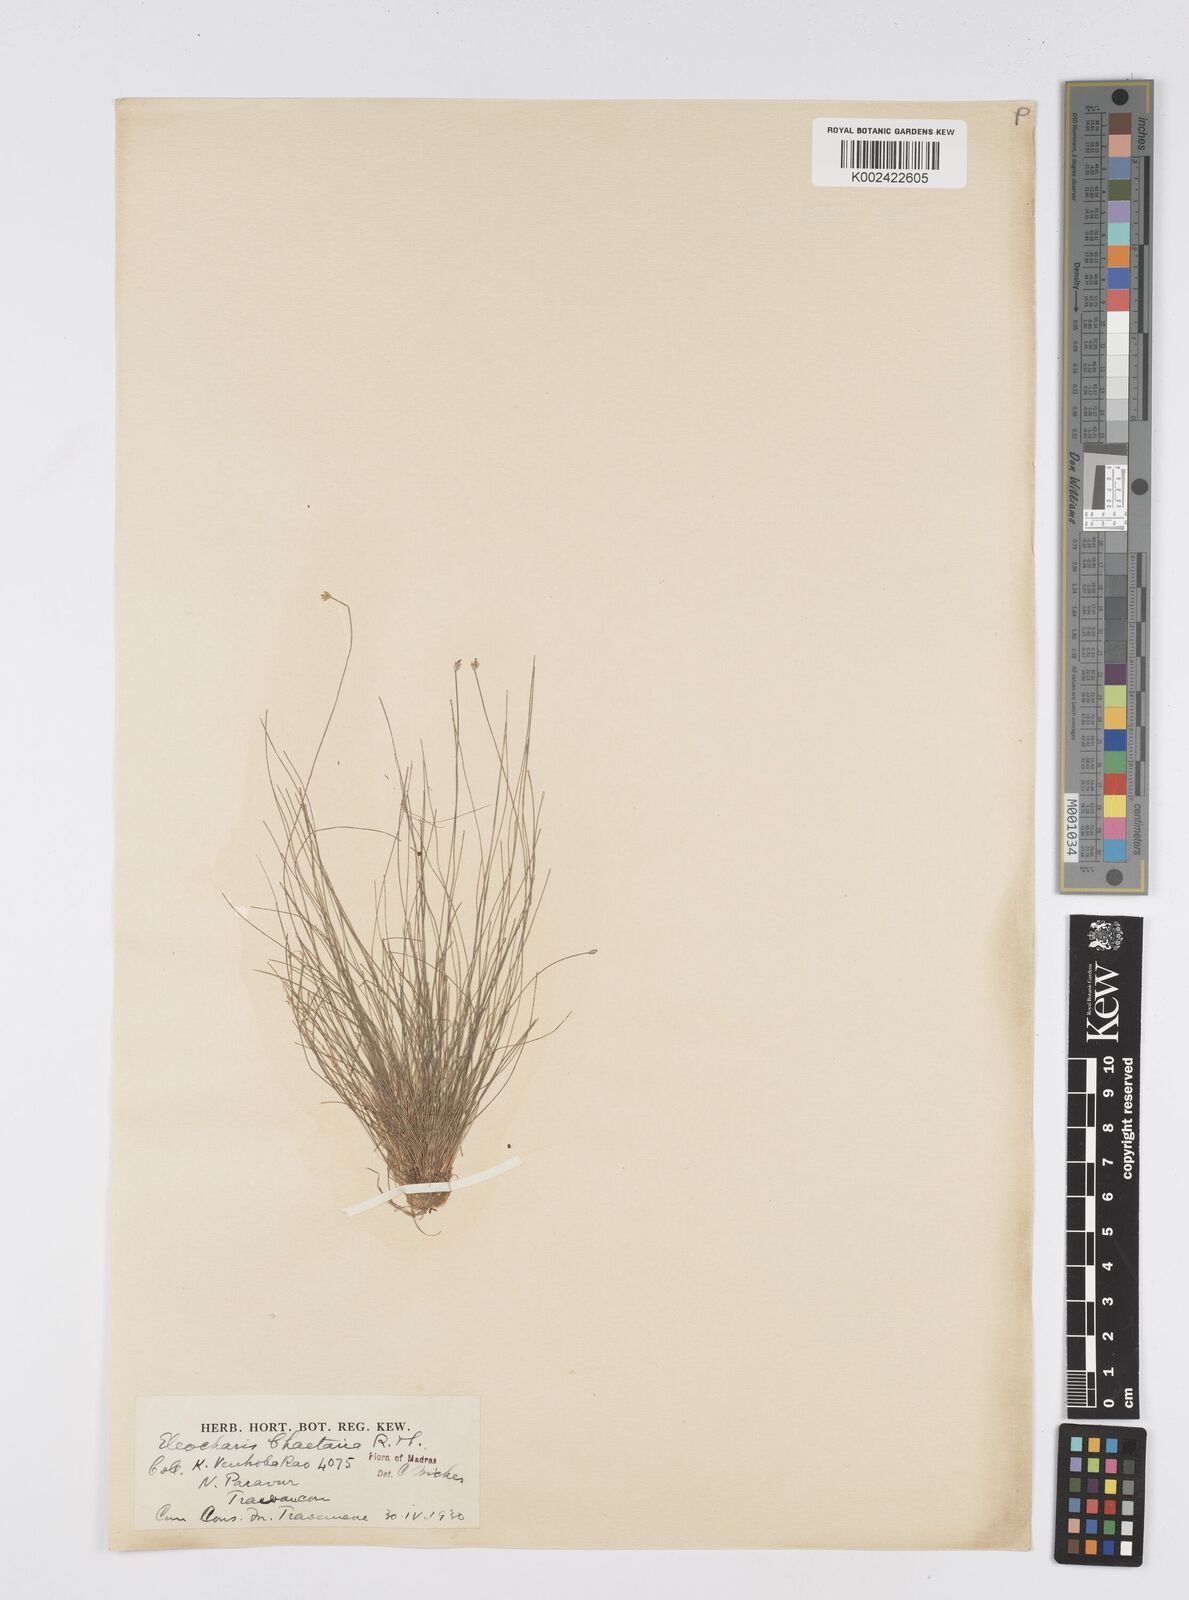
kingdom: Plantae
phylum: Tracheophyta
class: Liliopsida
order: Poales
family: Cyperaceae
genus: Eleocharis
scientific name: Eleocharis retroflexa
